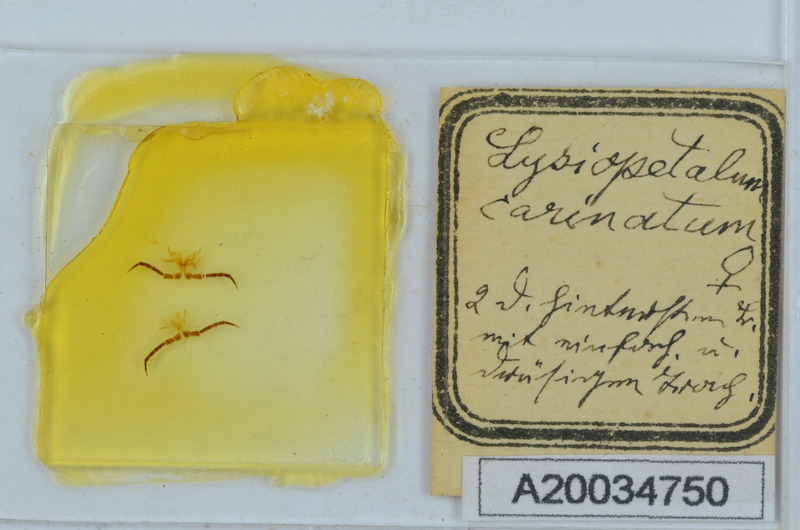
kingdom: Animalia
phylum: Arthropoda
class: Diplopoda
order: Callipodida
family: Schizopetalidae
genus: Acanthopetalum
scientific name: Acanthopetalum carinatum
